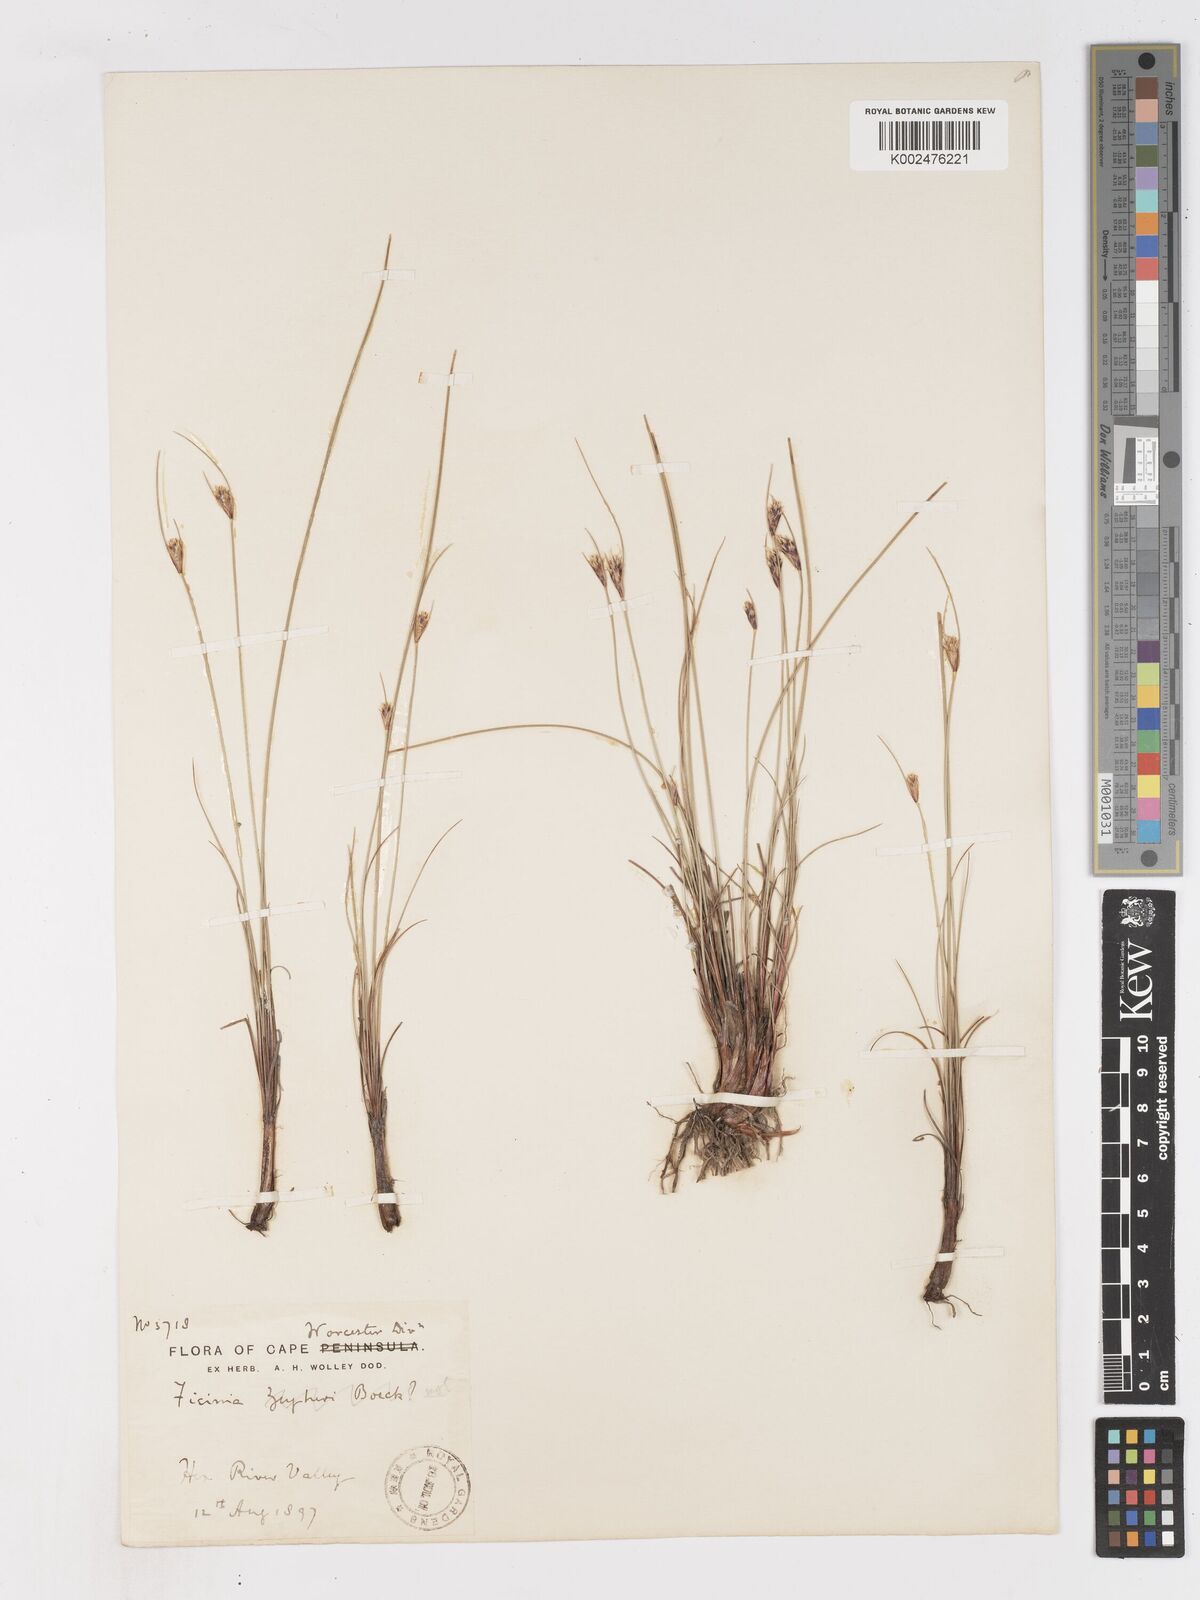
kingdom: Plantae
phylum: Tracheophyta
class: Liliopsida
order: Poales
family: Cyperaceae
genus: Ficinia
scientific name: Ficinia nigrescens
